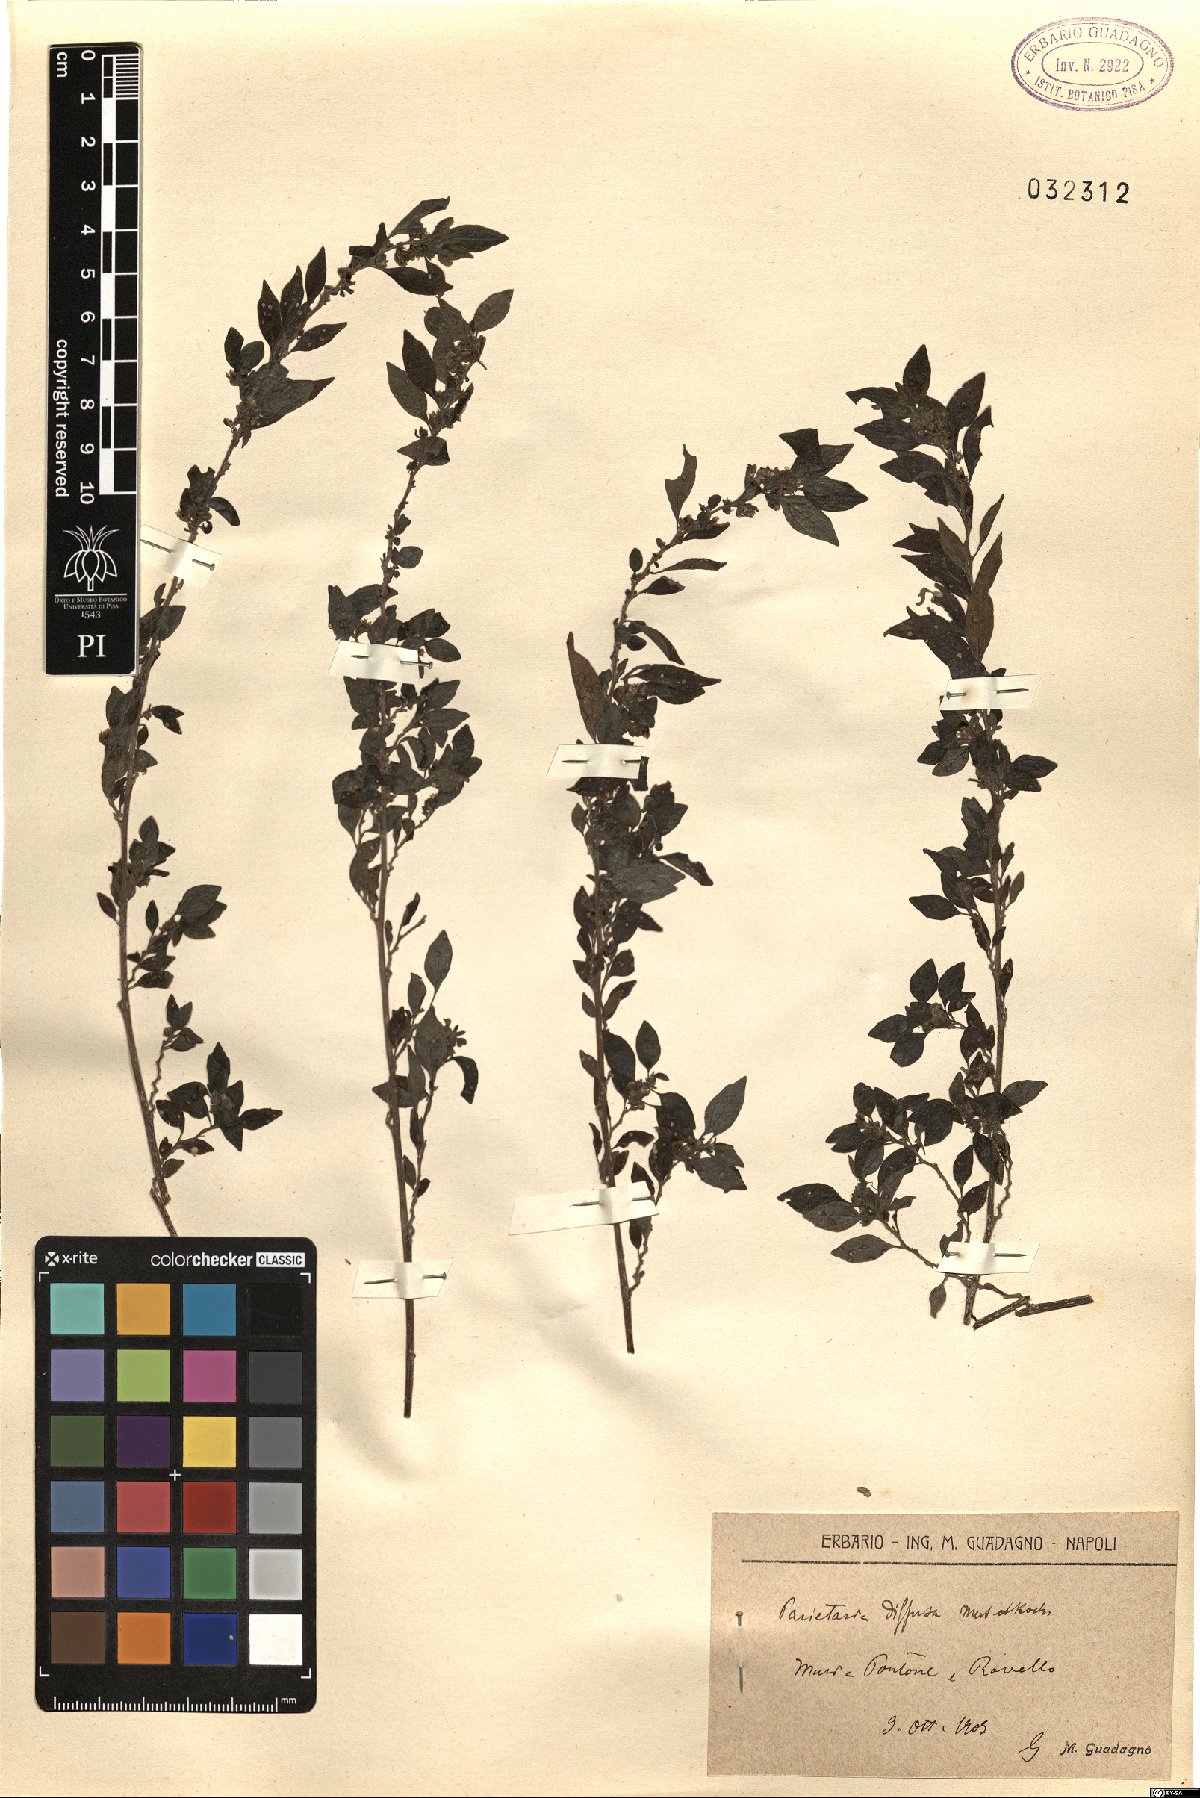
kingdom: Plantae
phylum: Tracheophyta
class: Magnoliopsida
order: Rosales
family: Urticaceae
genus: Parietaria
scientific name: Parietaria judaica
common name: Pellitory-of-the-wall
